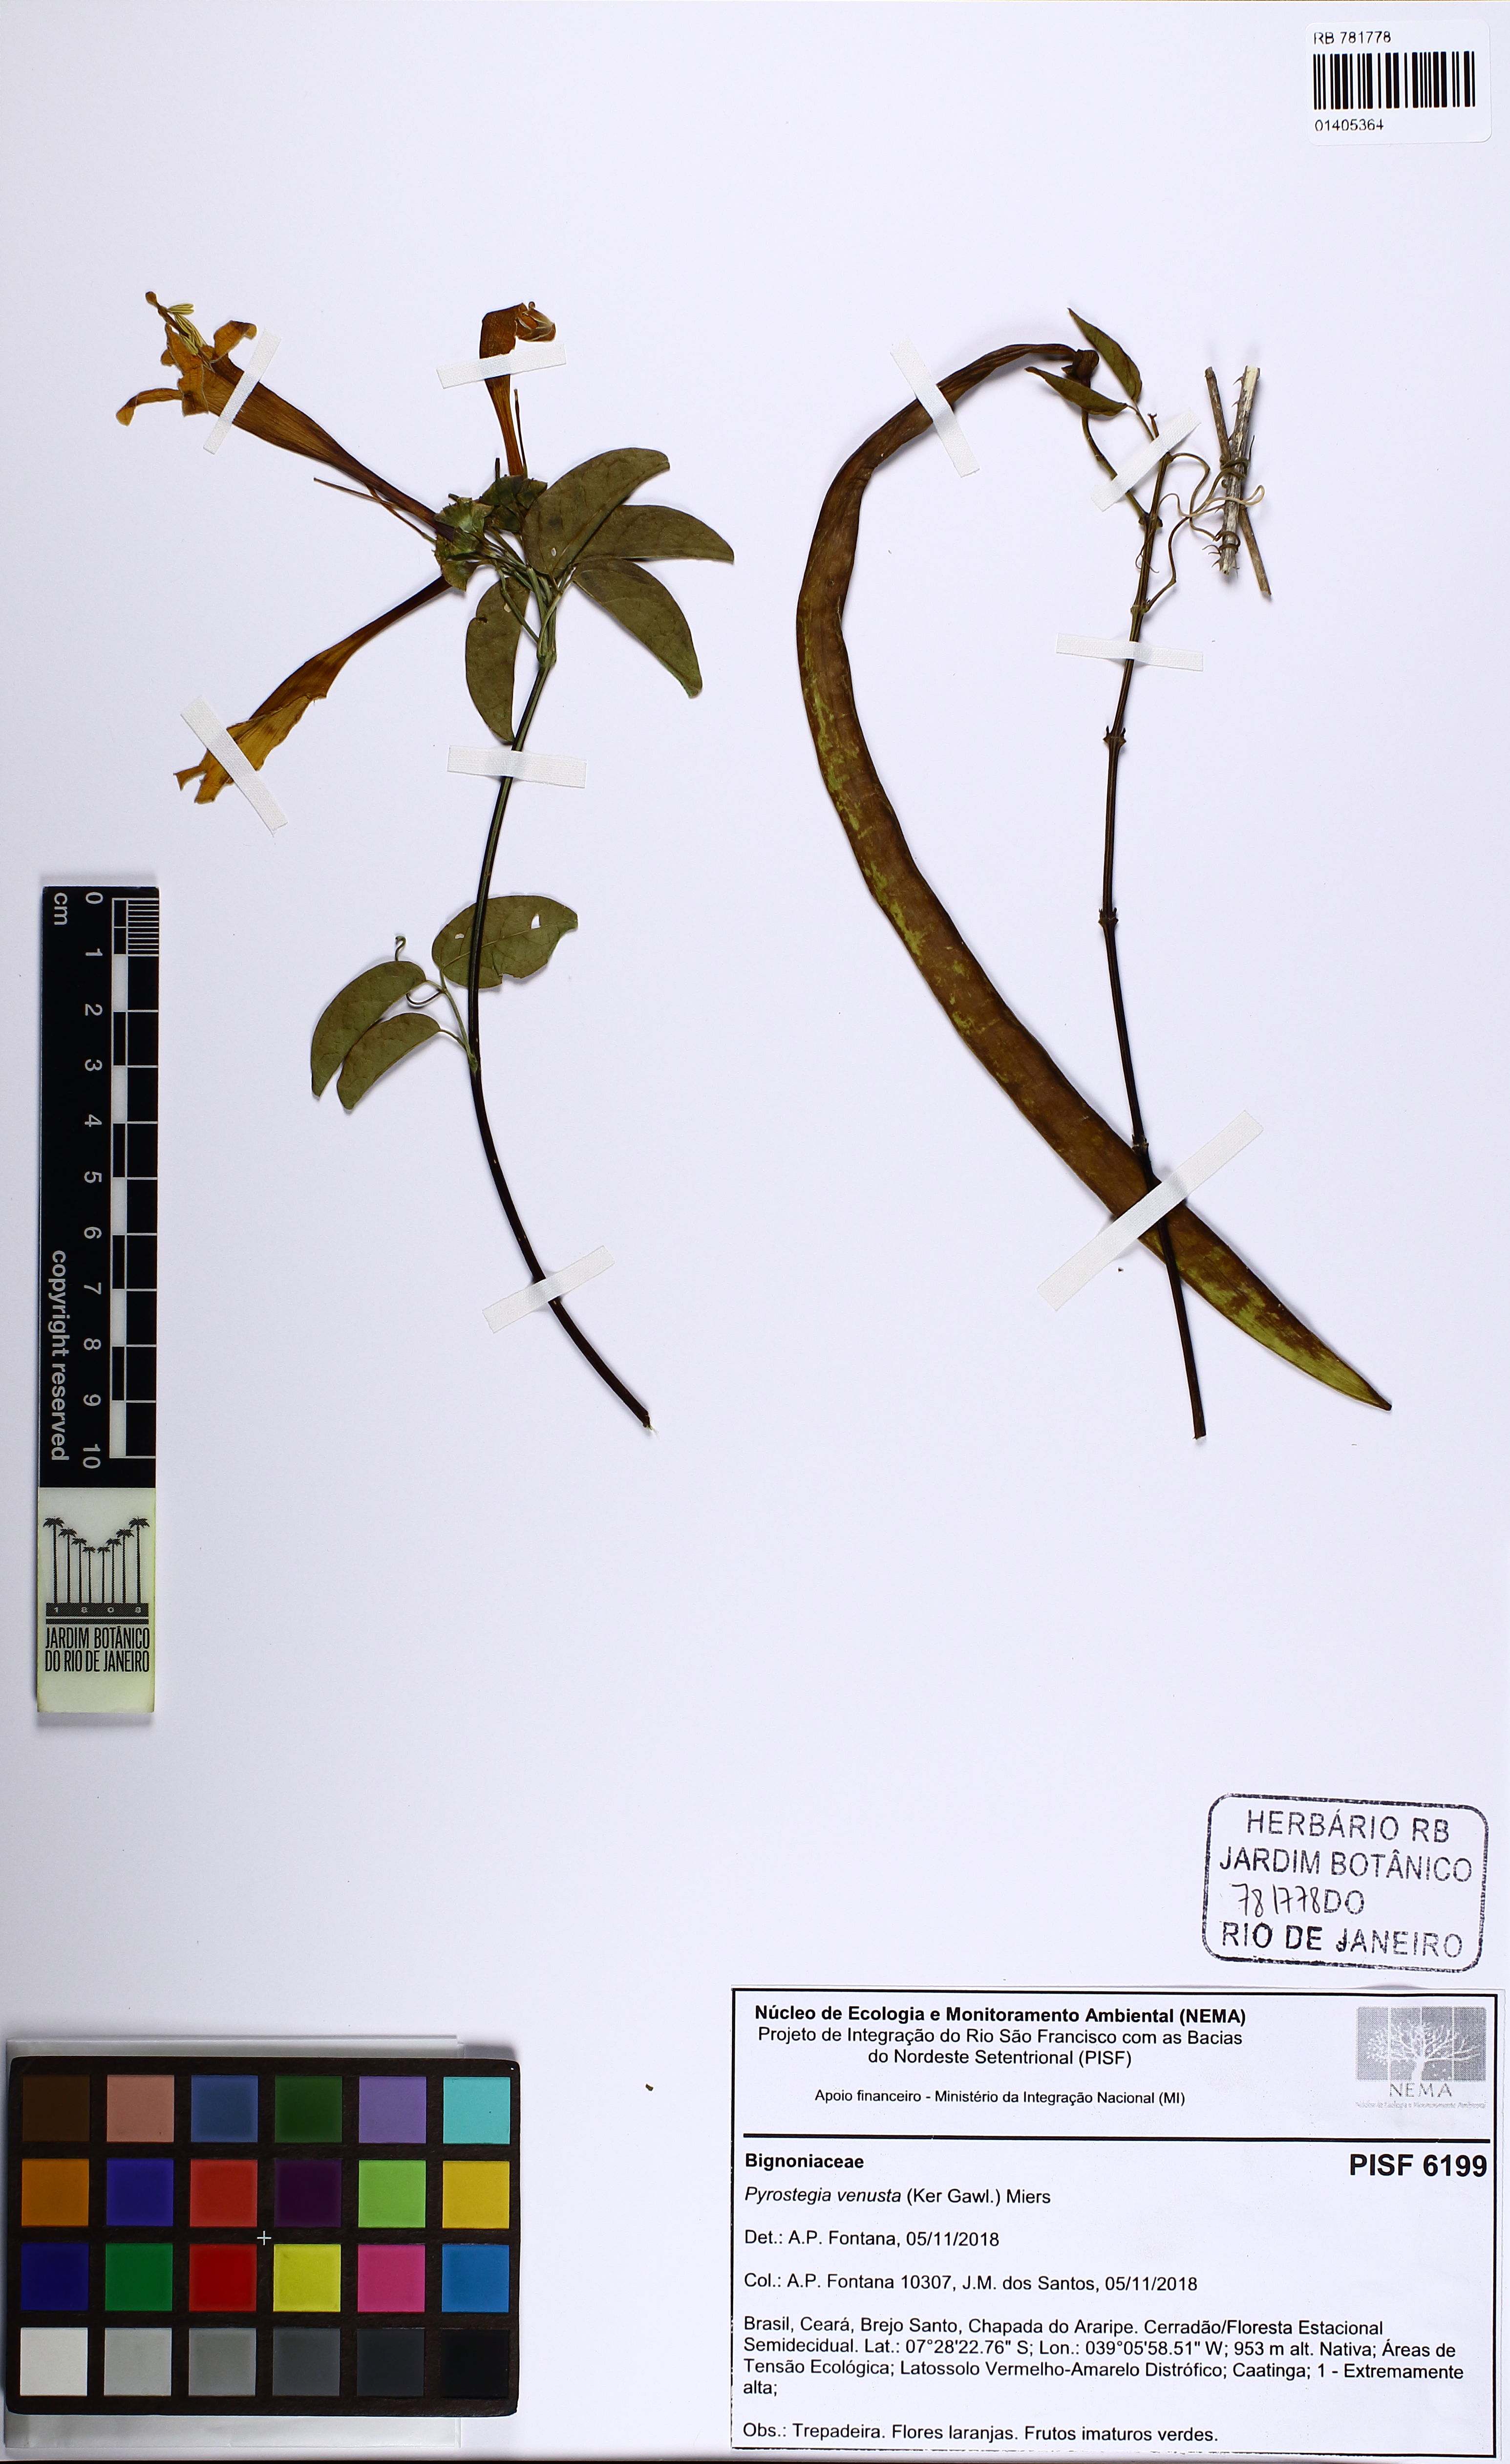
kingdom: Plantae
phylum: Tracheophyta
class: Magnoliopsida
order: Lamiales
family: Bignoniaceae
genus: Pyrostegia
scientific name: Pyrostegia venusta
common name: Flamevine
